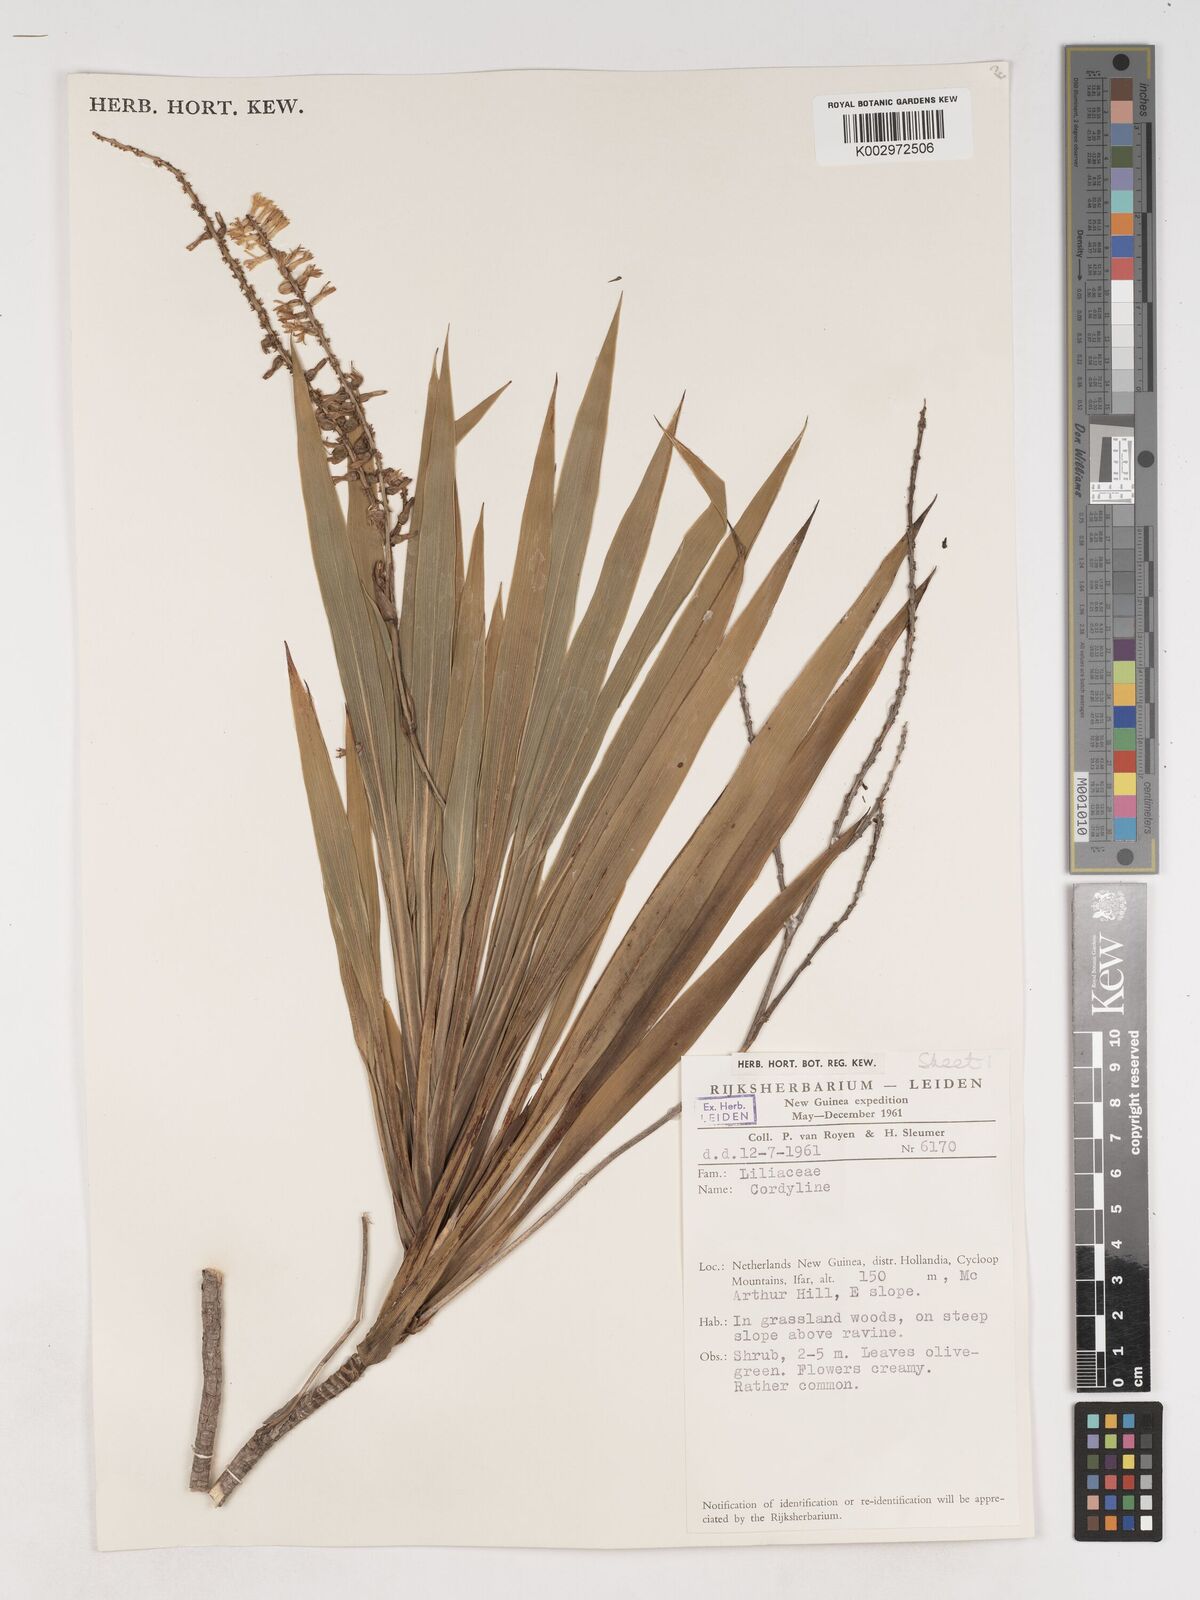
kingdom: Plantae
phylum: Tracheophyta
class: Liliopsida
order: Asparagales
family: Asparagaceae
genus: Cordyline
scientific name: Cordyline
